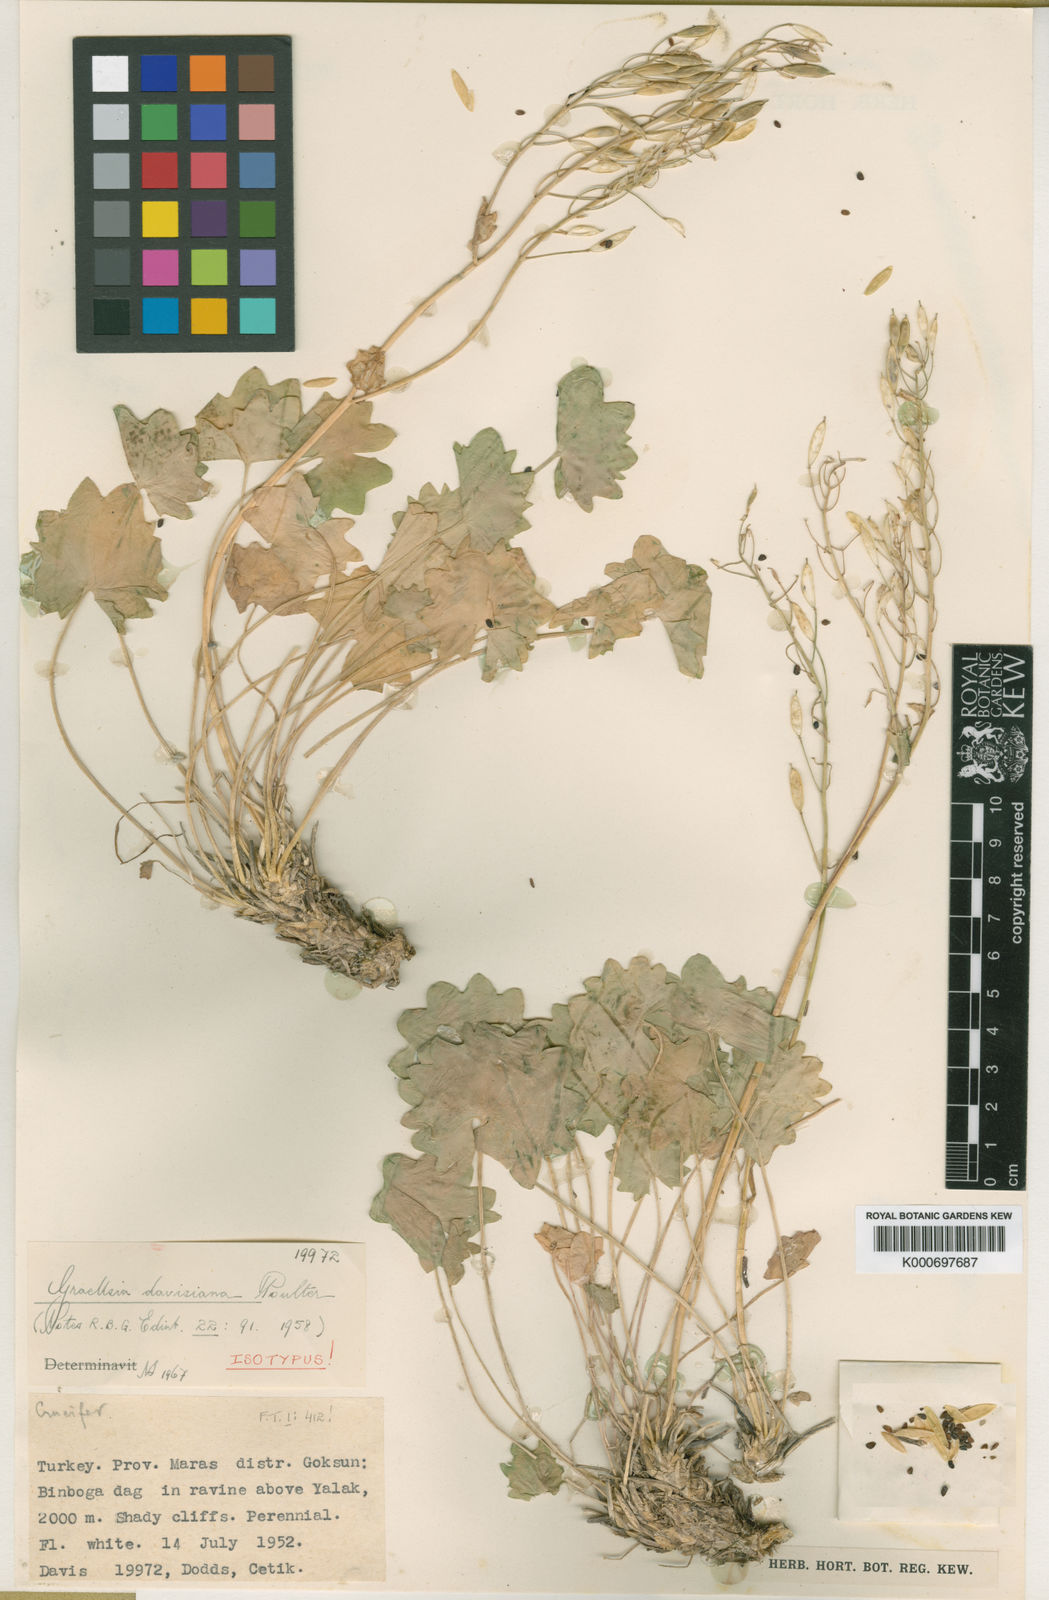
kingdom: Plantae
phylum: Tracheophyta
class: Magnoliopsida
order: Brassicales
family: Brassicaceae
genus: Graellsia
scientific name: Graellsia davisiana
